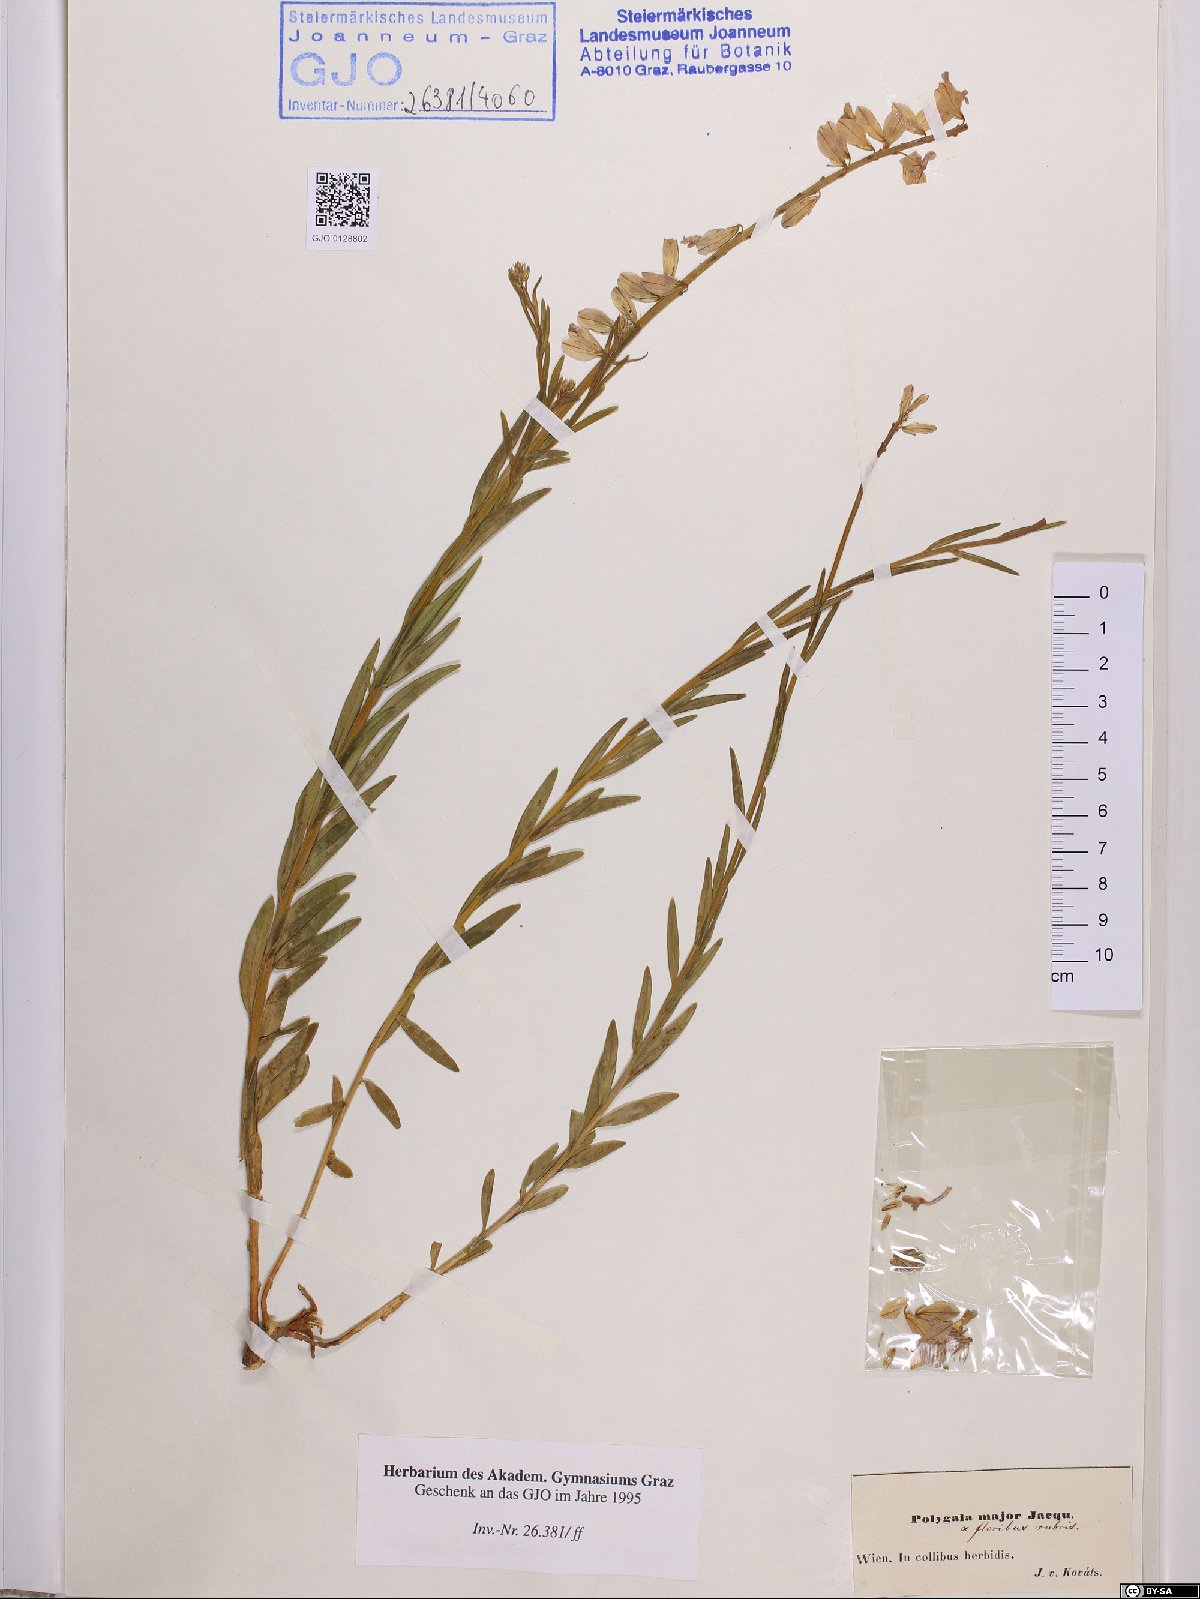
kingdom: Plantae
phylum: Tracheophyta
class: Magnoliopsida
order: Fabales
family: Polygalaceae
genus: Polygala
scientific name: Polygala major
